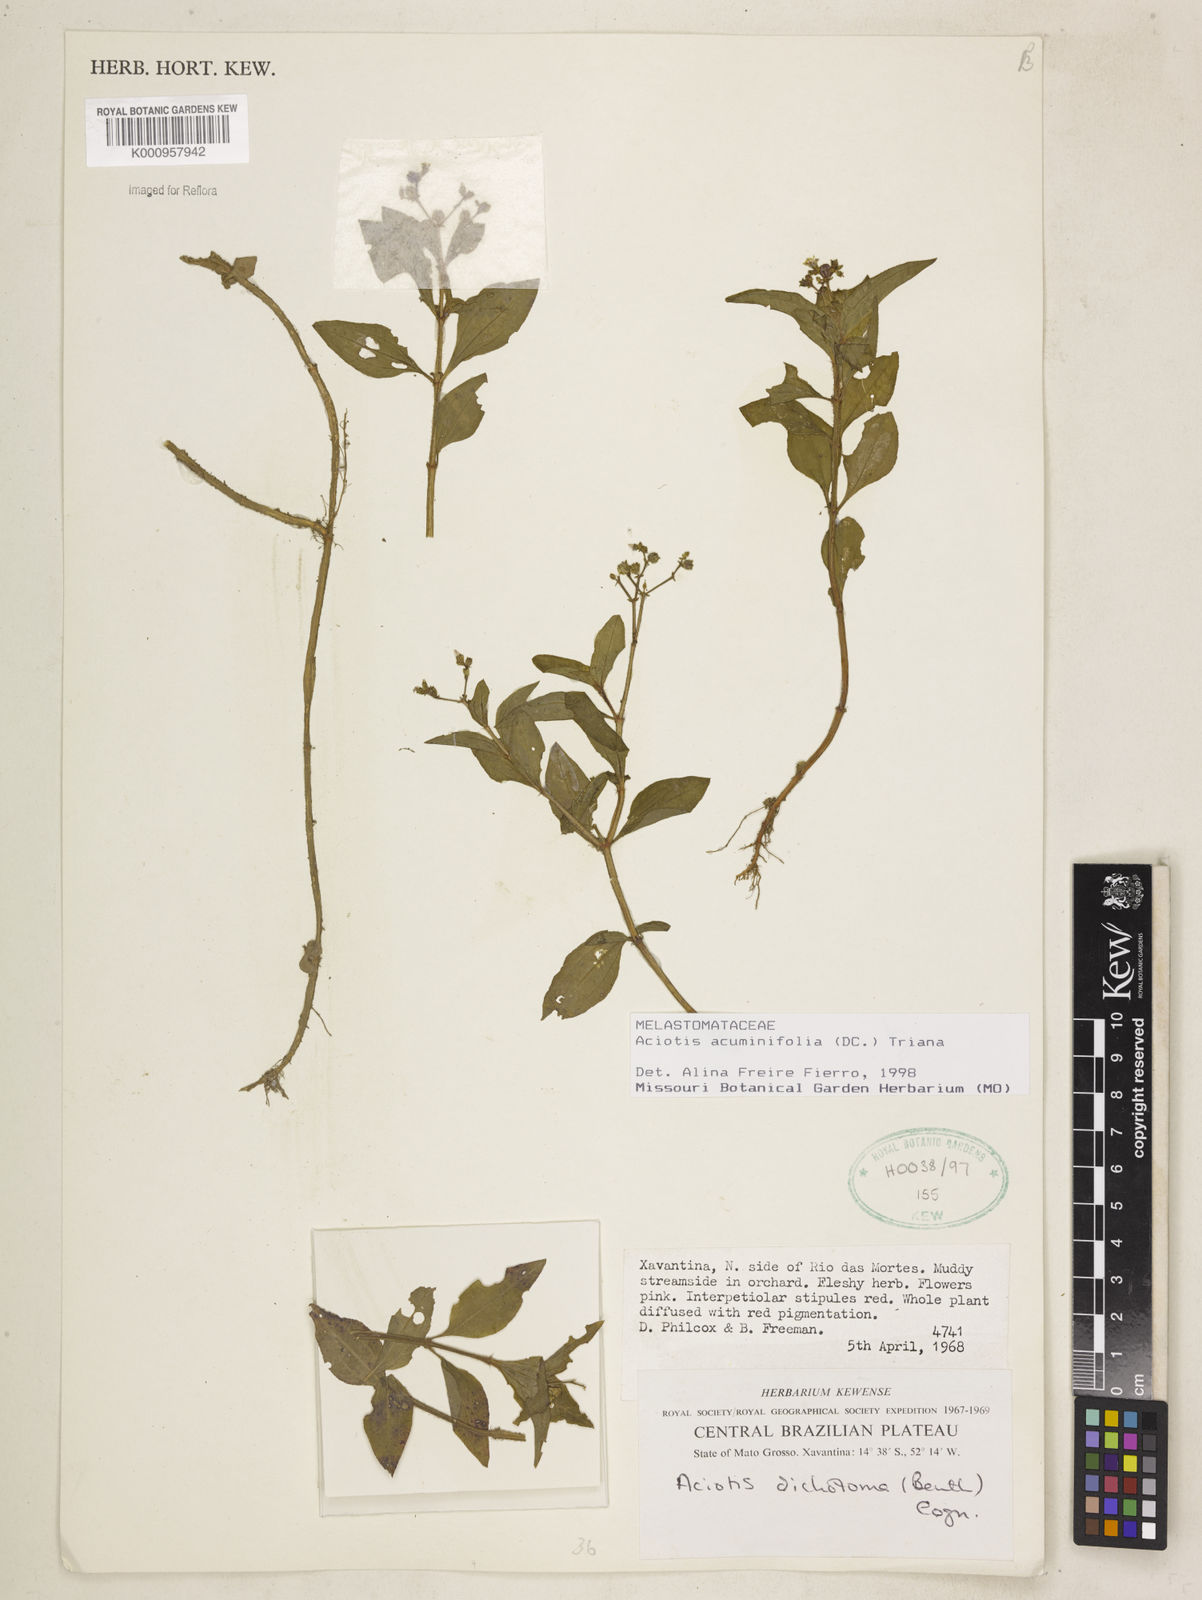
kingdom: Plantae
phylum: Tracheophyta
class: Magnoliopsida
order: Myrtales
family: Melastomataceae
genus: Aciotis
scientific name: Aciotis acuminifolia
